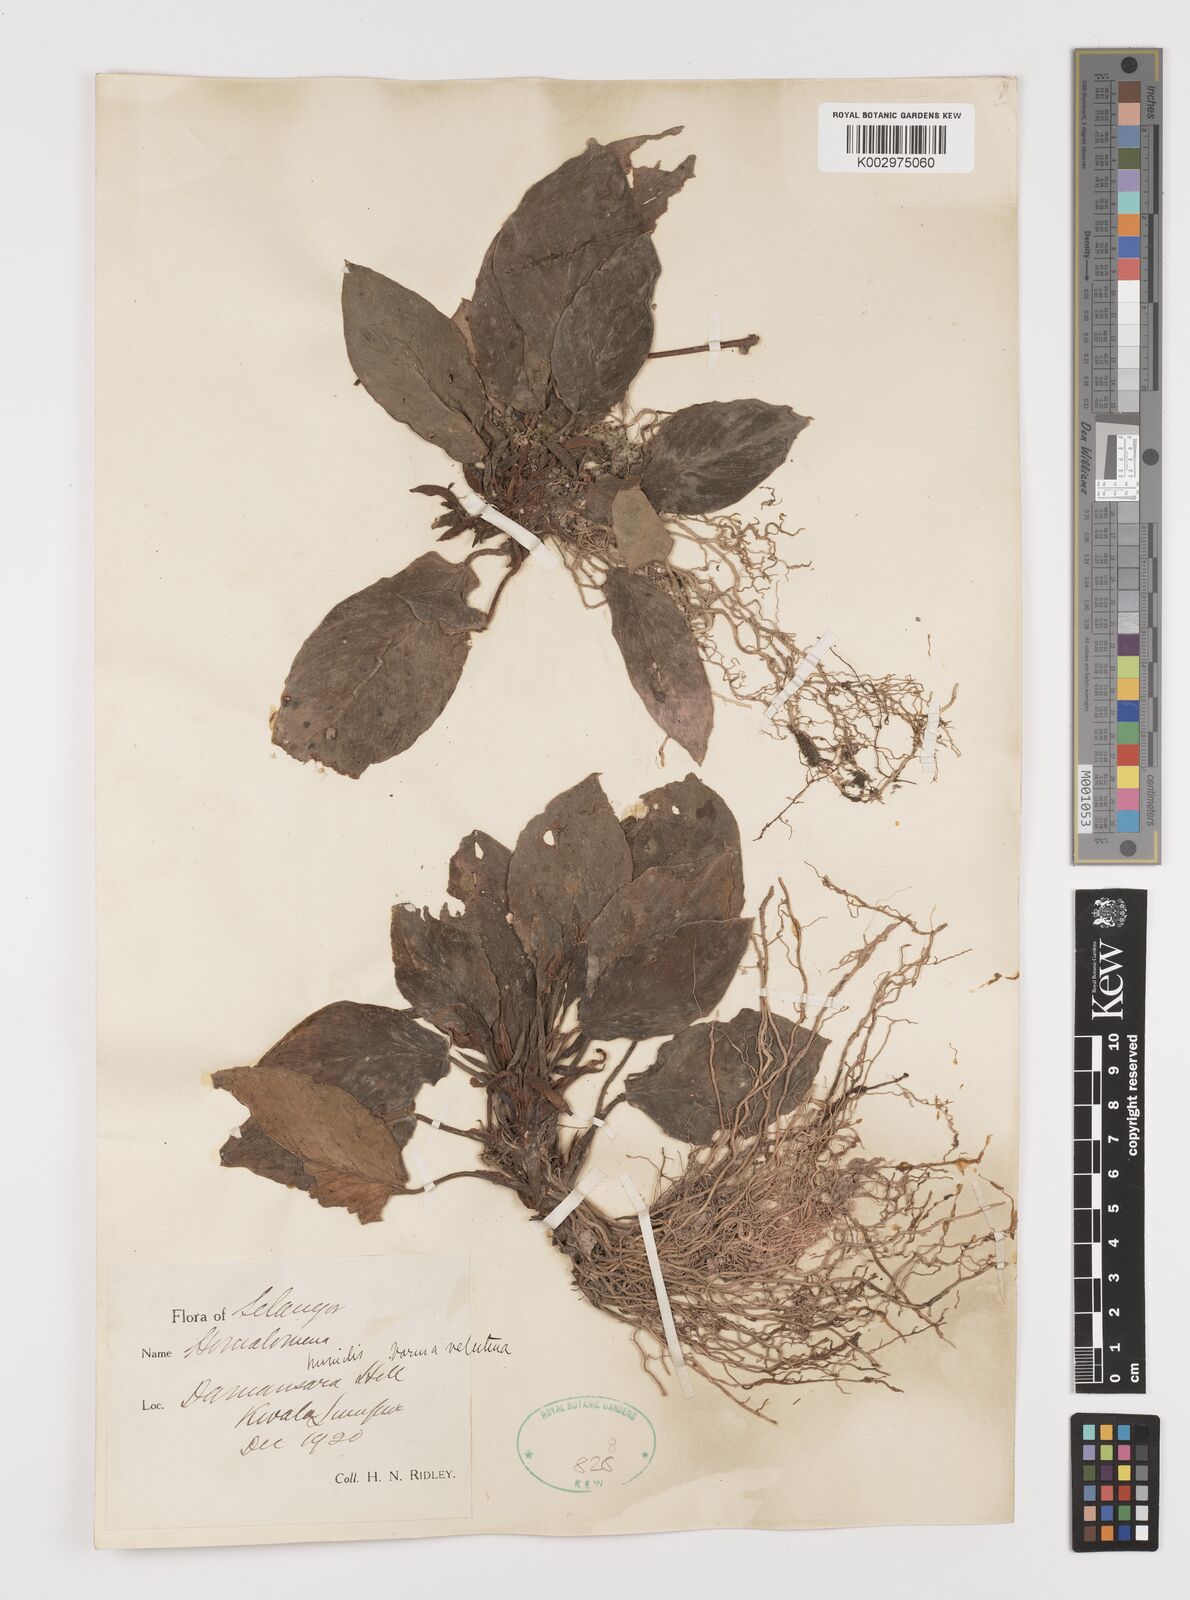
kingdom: Plantae
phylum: Tracheophyta
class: Liliopsida
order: Alismatales
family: Araceae
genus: Homalomena
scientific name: Homalomena humilis
